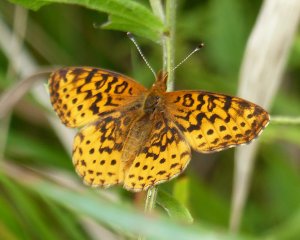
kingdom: Animalia
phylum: Arthropoda
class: Insecta
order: Lepidoptera
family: Nymphalidae
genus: Clossiana
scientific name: Clossiana toddi
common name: Meadow Fritillary
